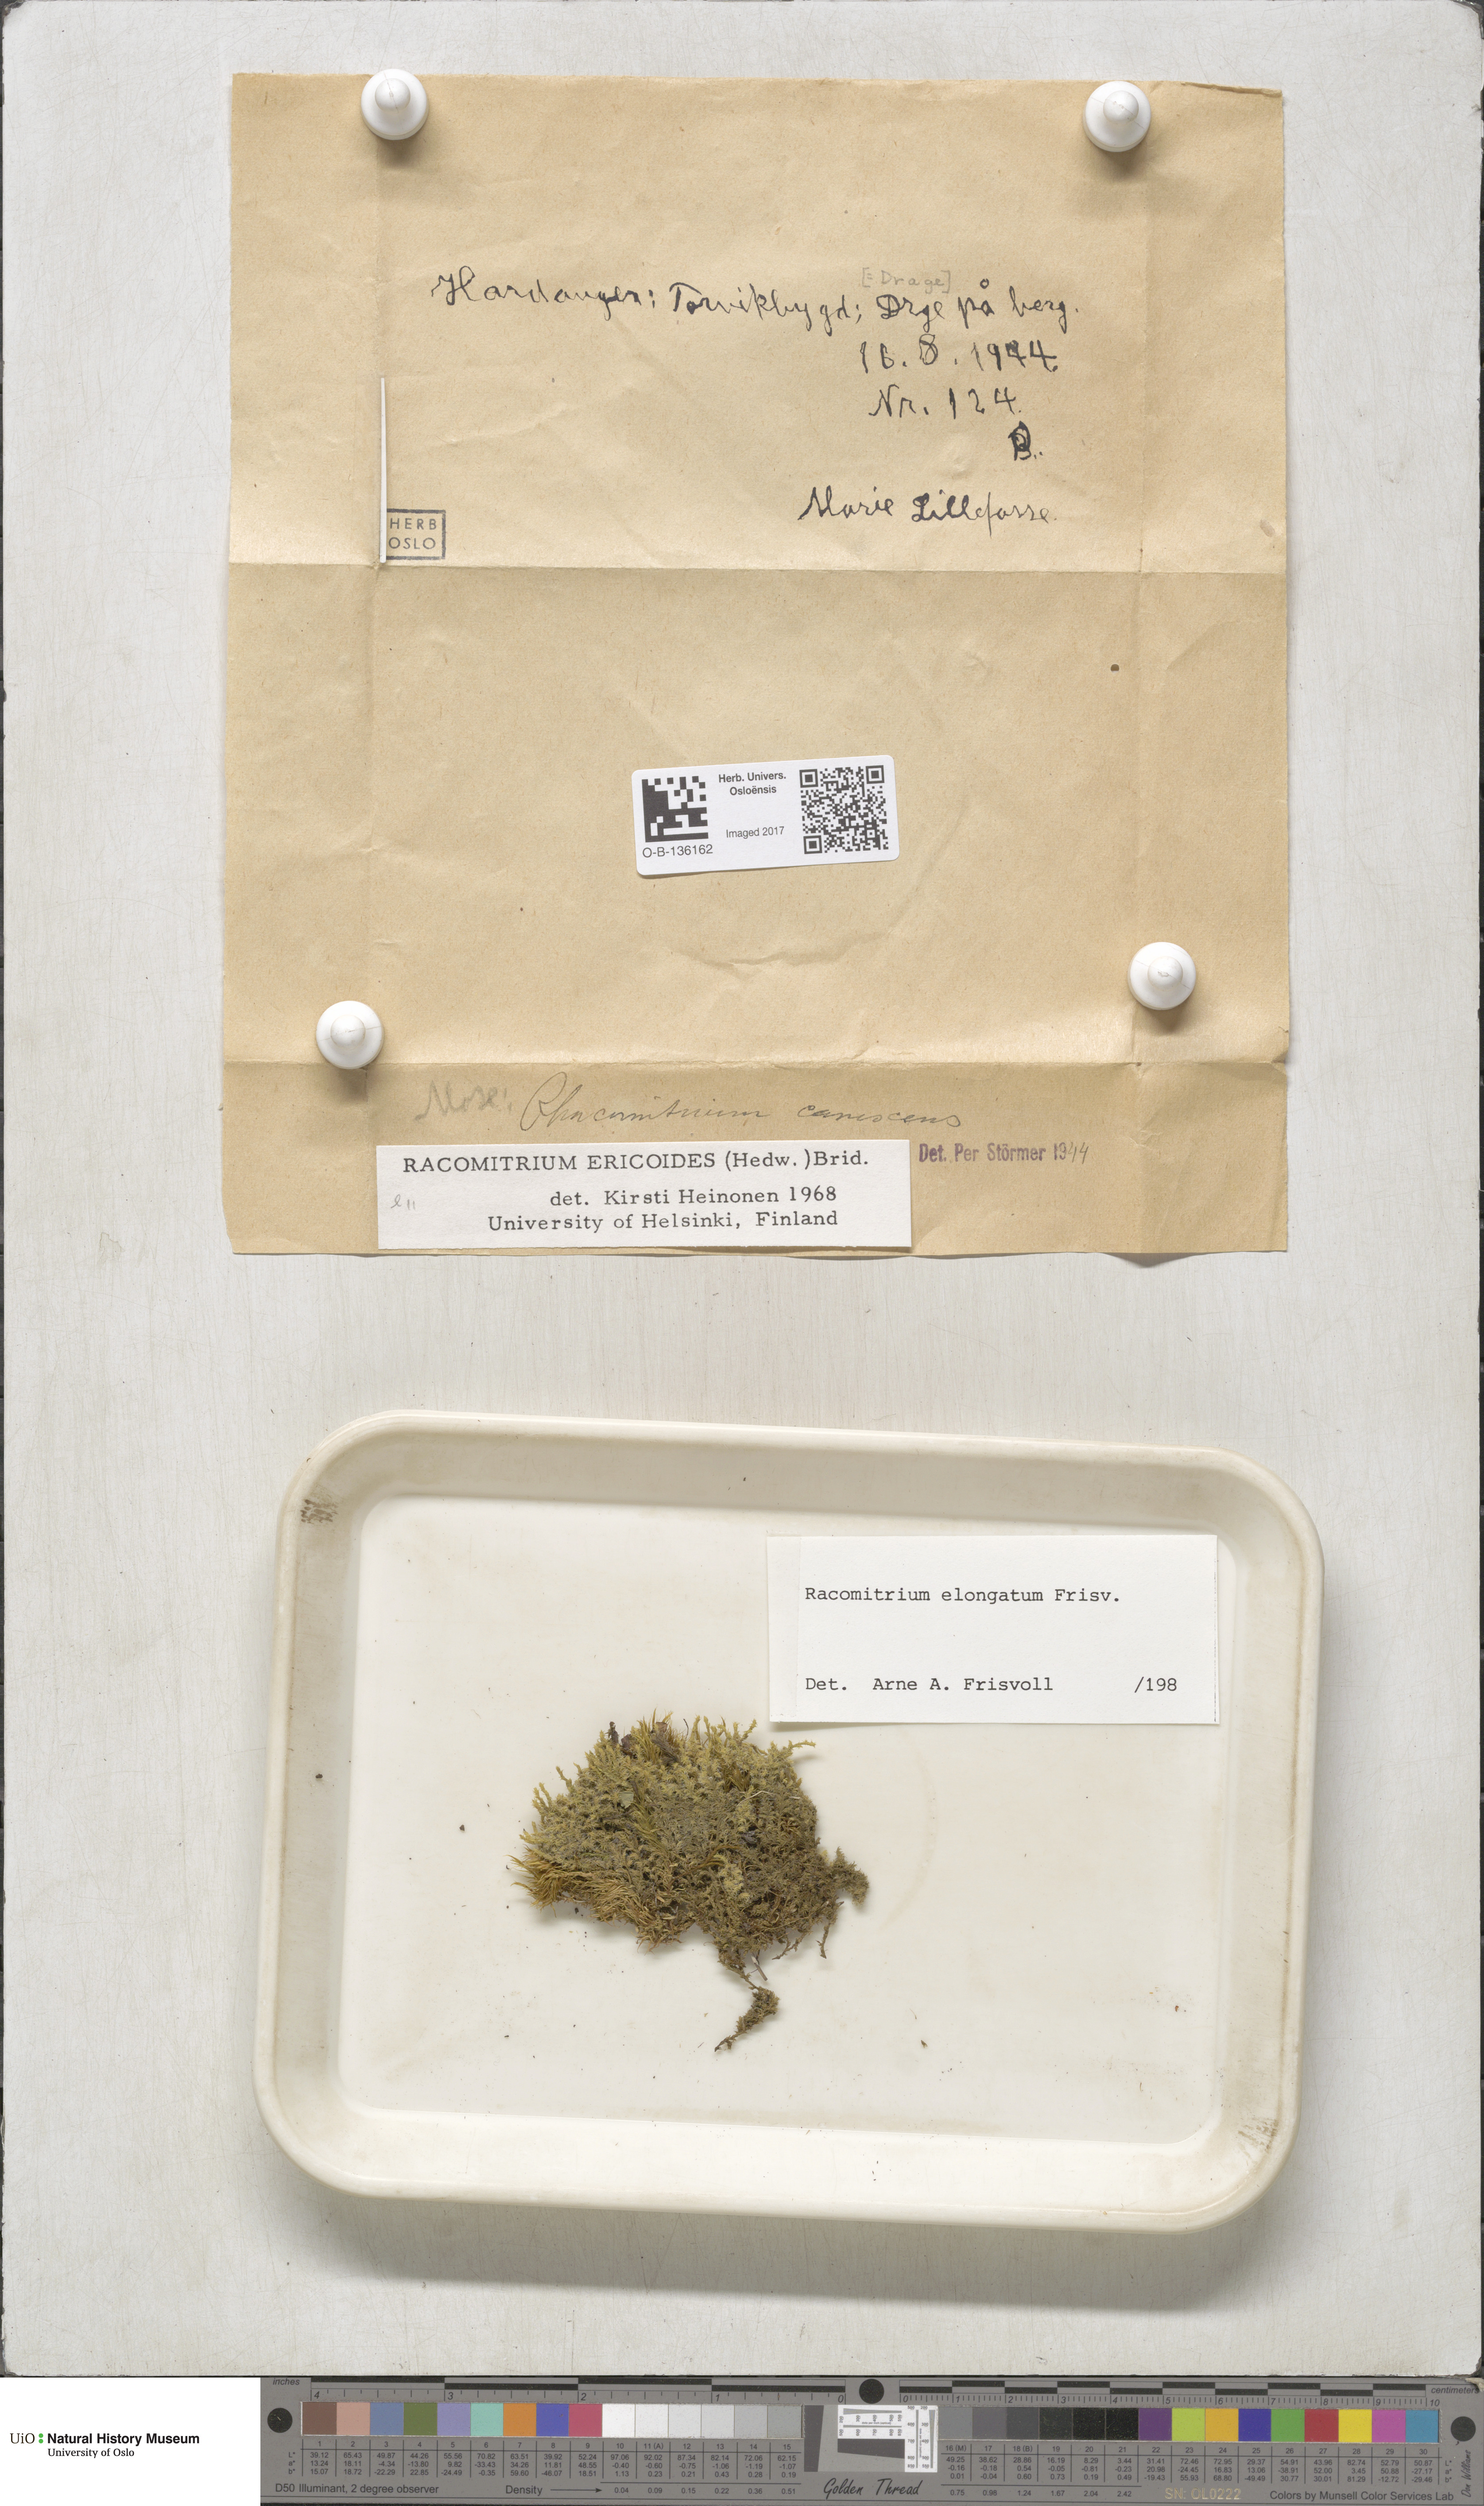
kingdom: Plantae
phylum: Bryophyta
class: Bryopsida
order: Grimmiales
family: Grimmiaceae
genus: Niphotrichum
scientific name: Niphotrichum elongatum
